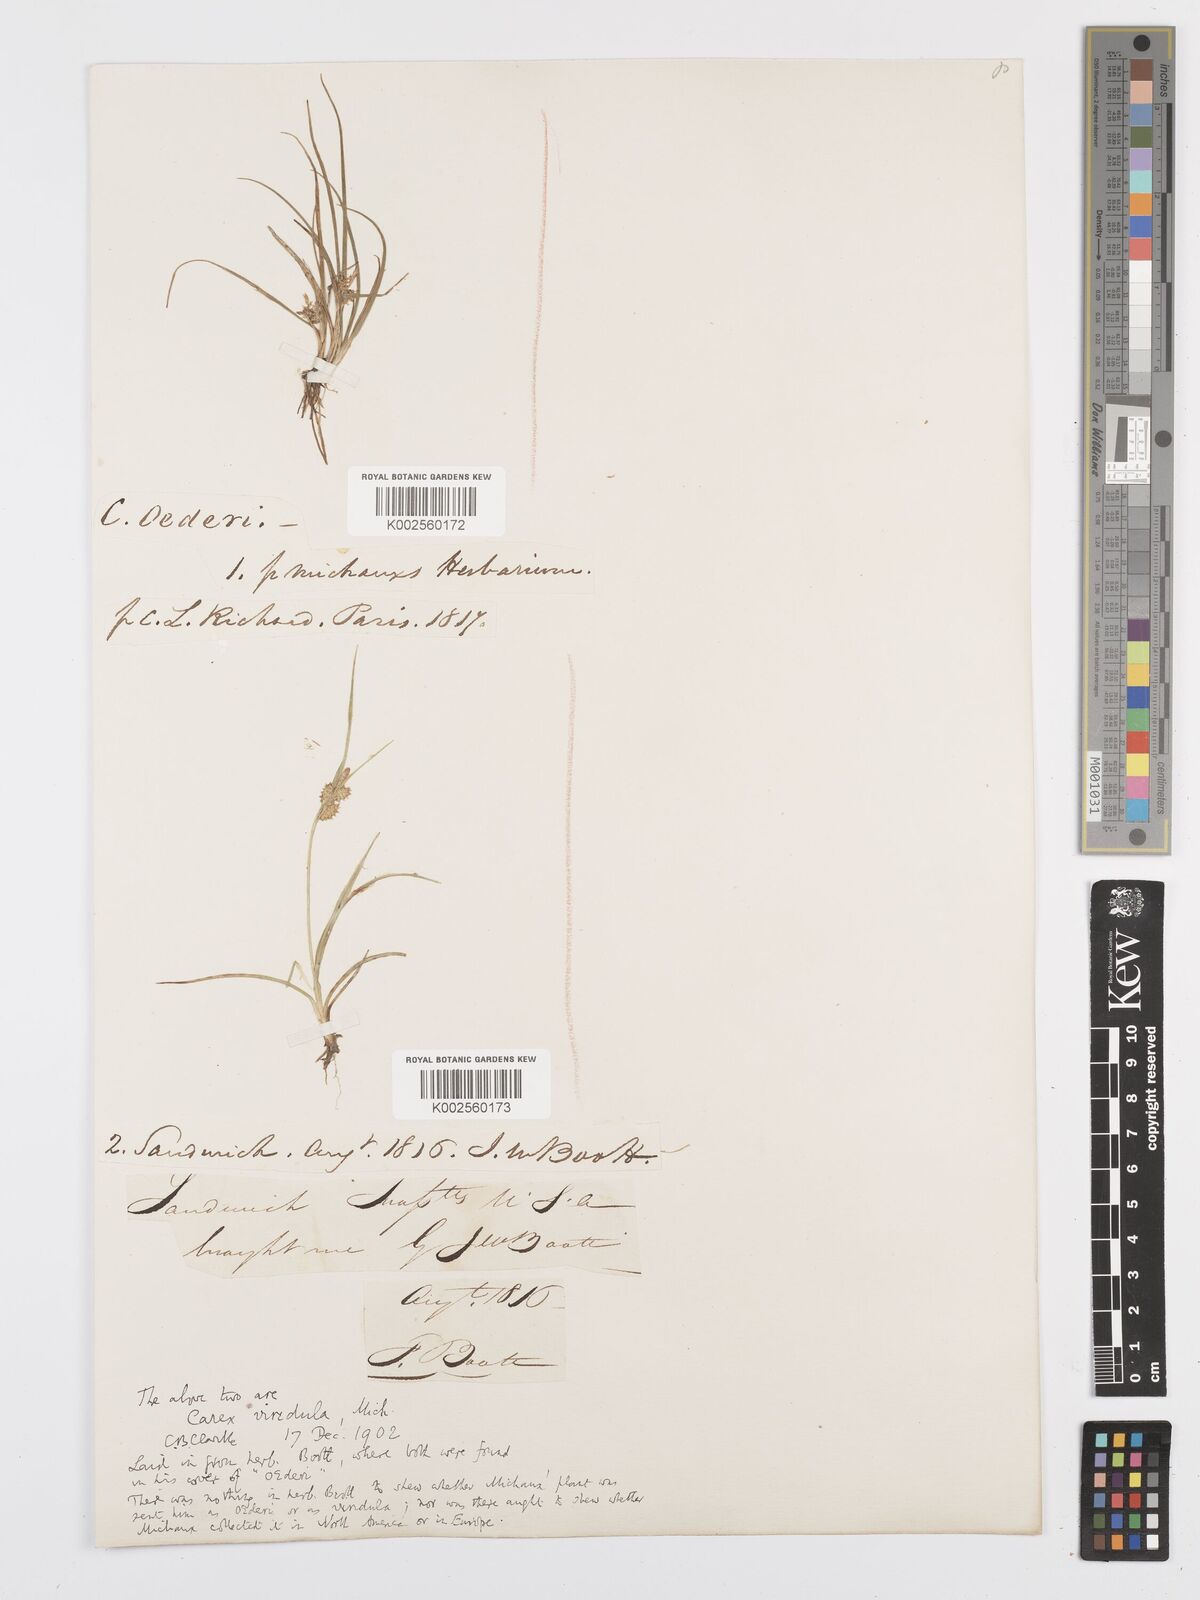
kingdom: Plantae
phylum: Tracheophyta
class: Liliopsida
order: Poales
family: Cyperaceae
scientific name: Cyperaceae
